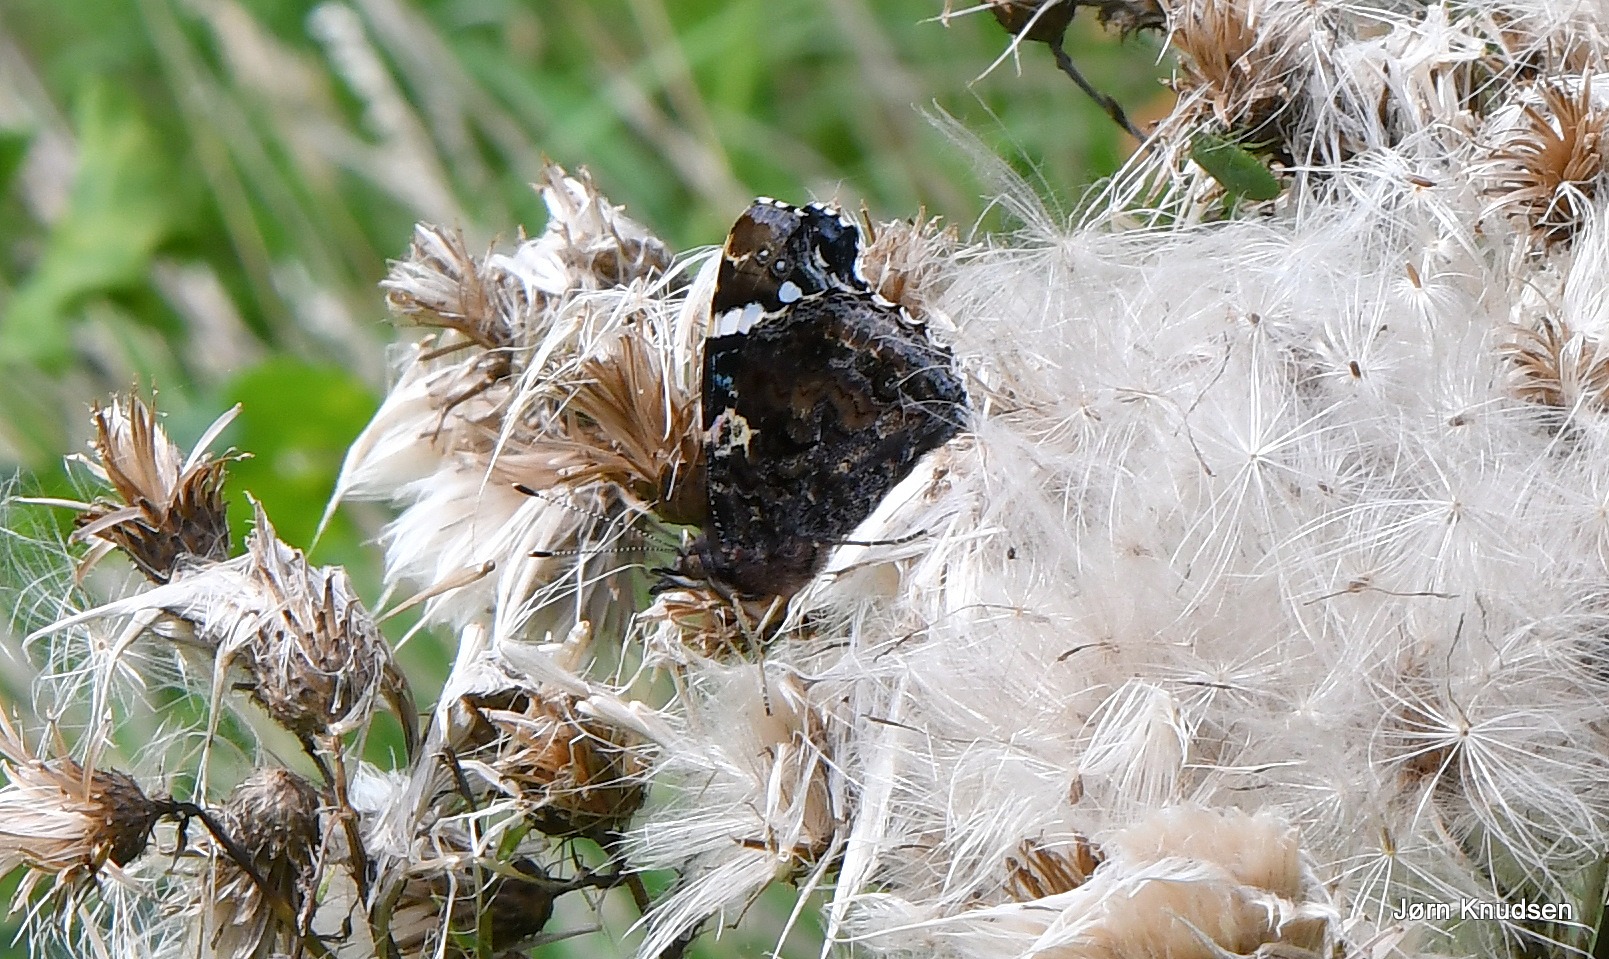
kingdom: Animalia
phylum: Arthropoda
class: Insecta
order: Lepidoptera
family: Nymphalidae
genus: Vanessa
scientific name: Vanessa atalanta
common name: Admiral
